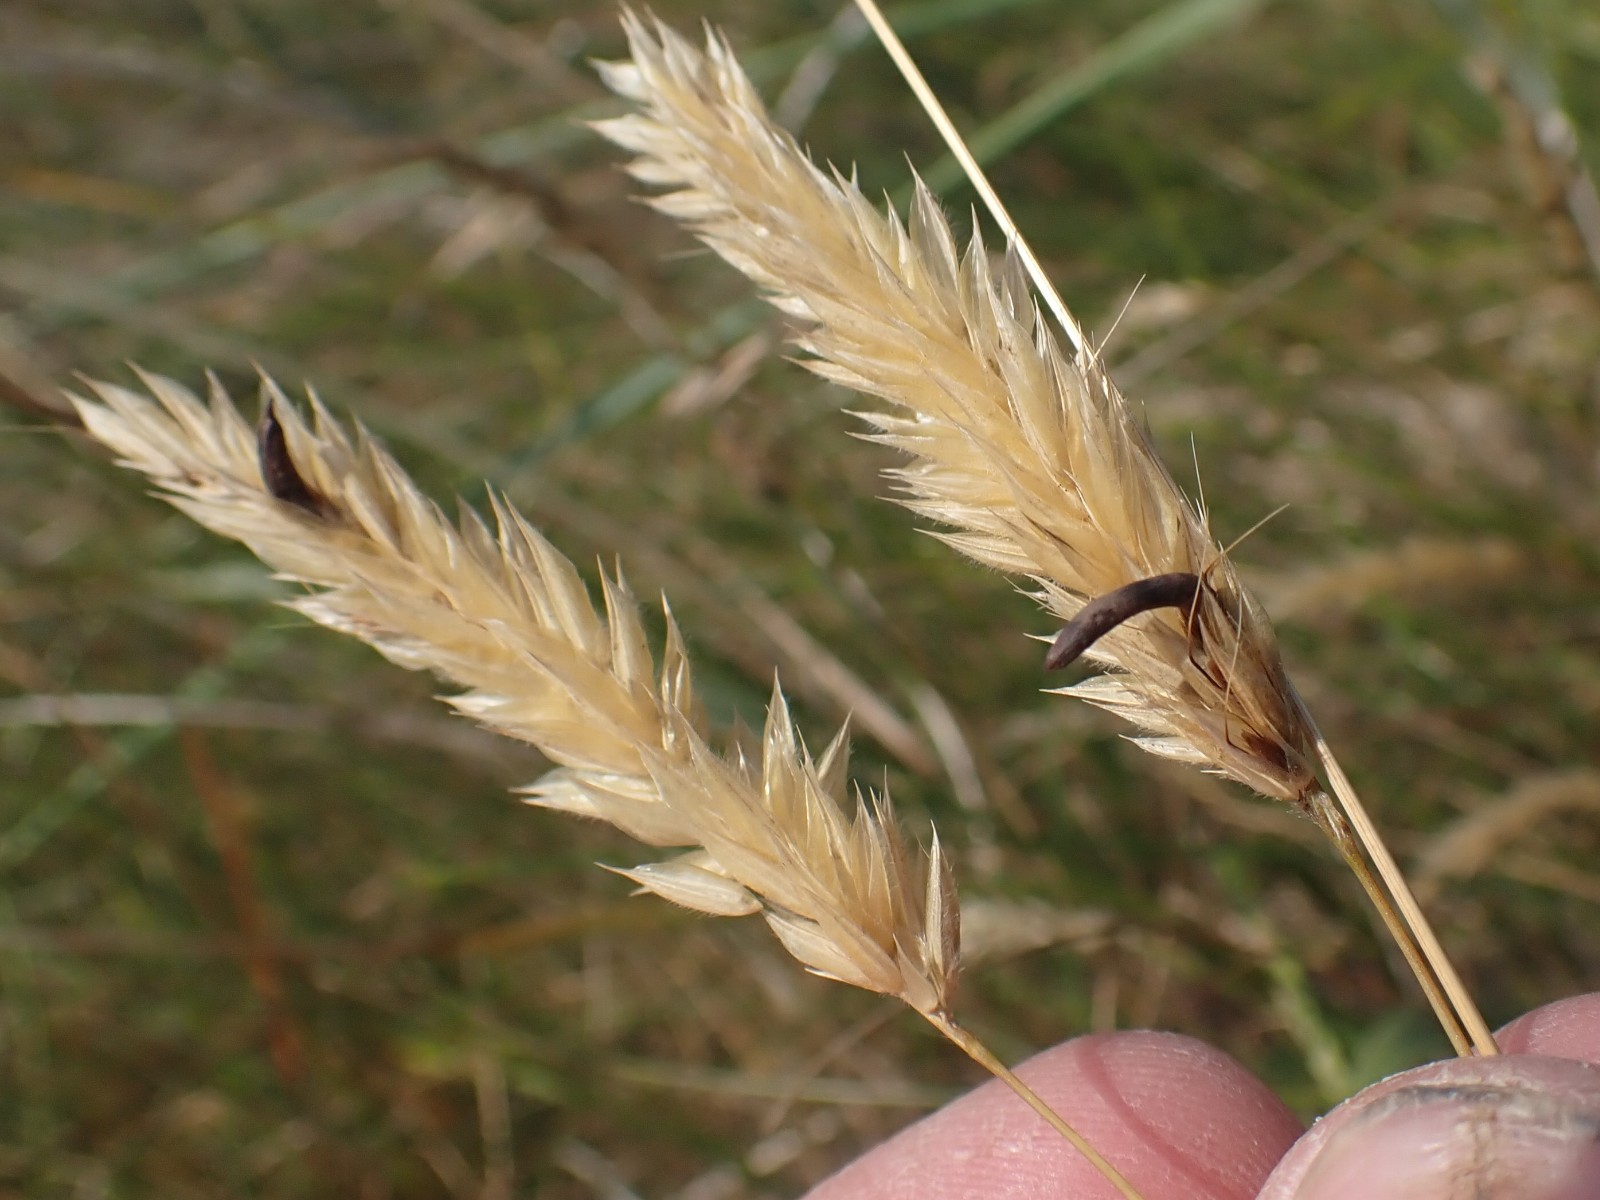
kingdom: Fungi
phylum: Ascomycota
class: Sordariomycetes
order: Hypocreales
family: Clavicipitaceae
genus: Claviceps
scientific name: Claviceps purpurea
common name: almindelig meldrøjer
